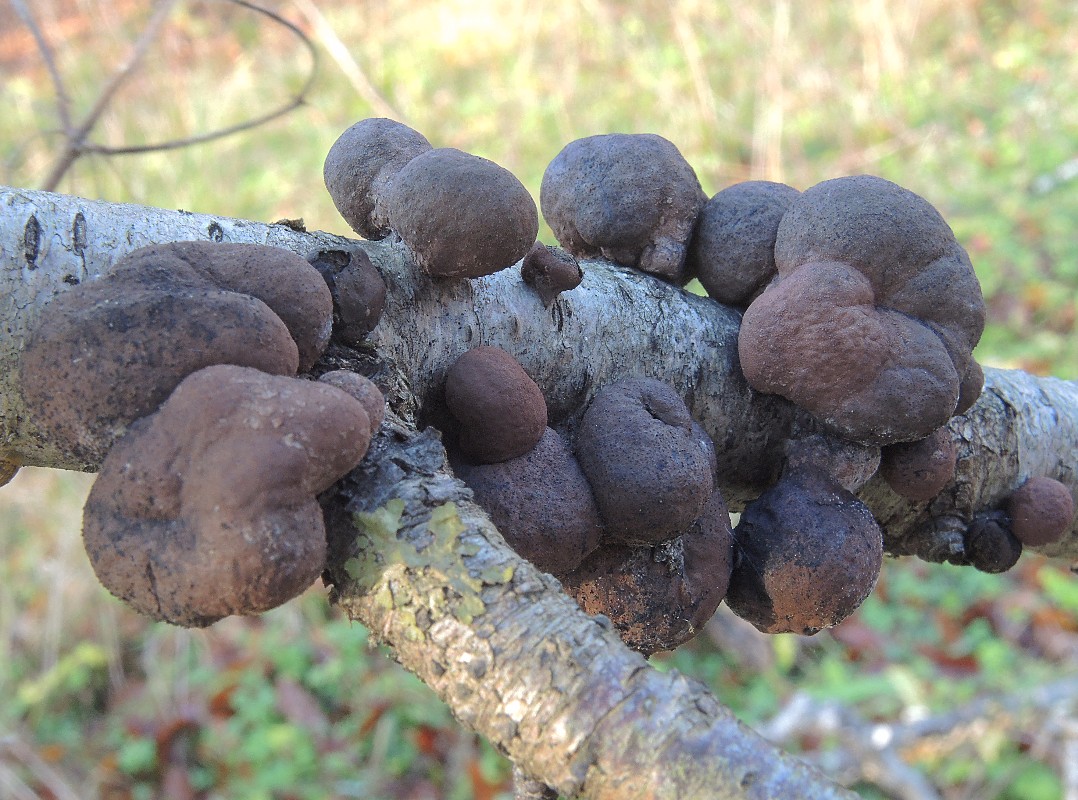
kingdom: Fungi
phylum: Ascomycota
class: Sordariomycetes
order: Xylariales
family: Hypoxylaceae
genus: Daldinia
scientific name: Daldinia decipiens
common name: stilket bæltekugle
